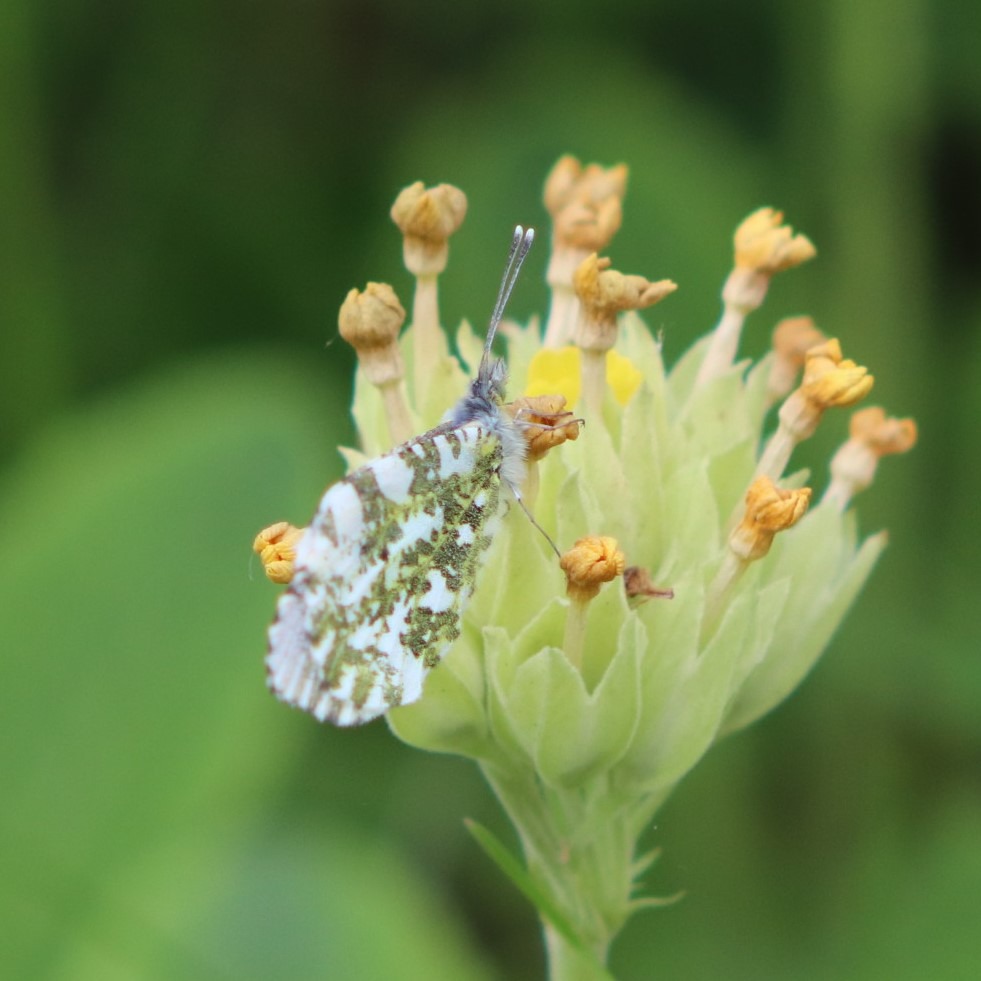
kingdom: Animalia
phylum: Arthropoda
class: Insecta
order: Lepidoptera
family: Pieridae
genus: Anthocharis
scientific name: Anthocharis cardamines
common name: Aurora
